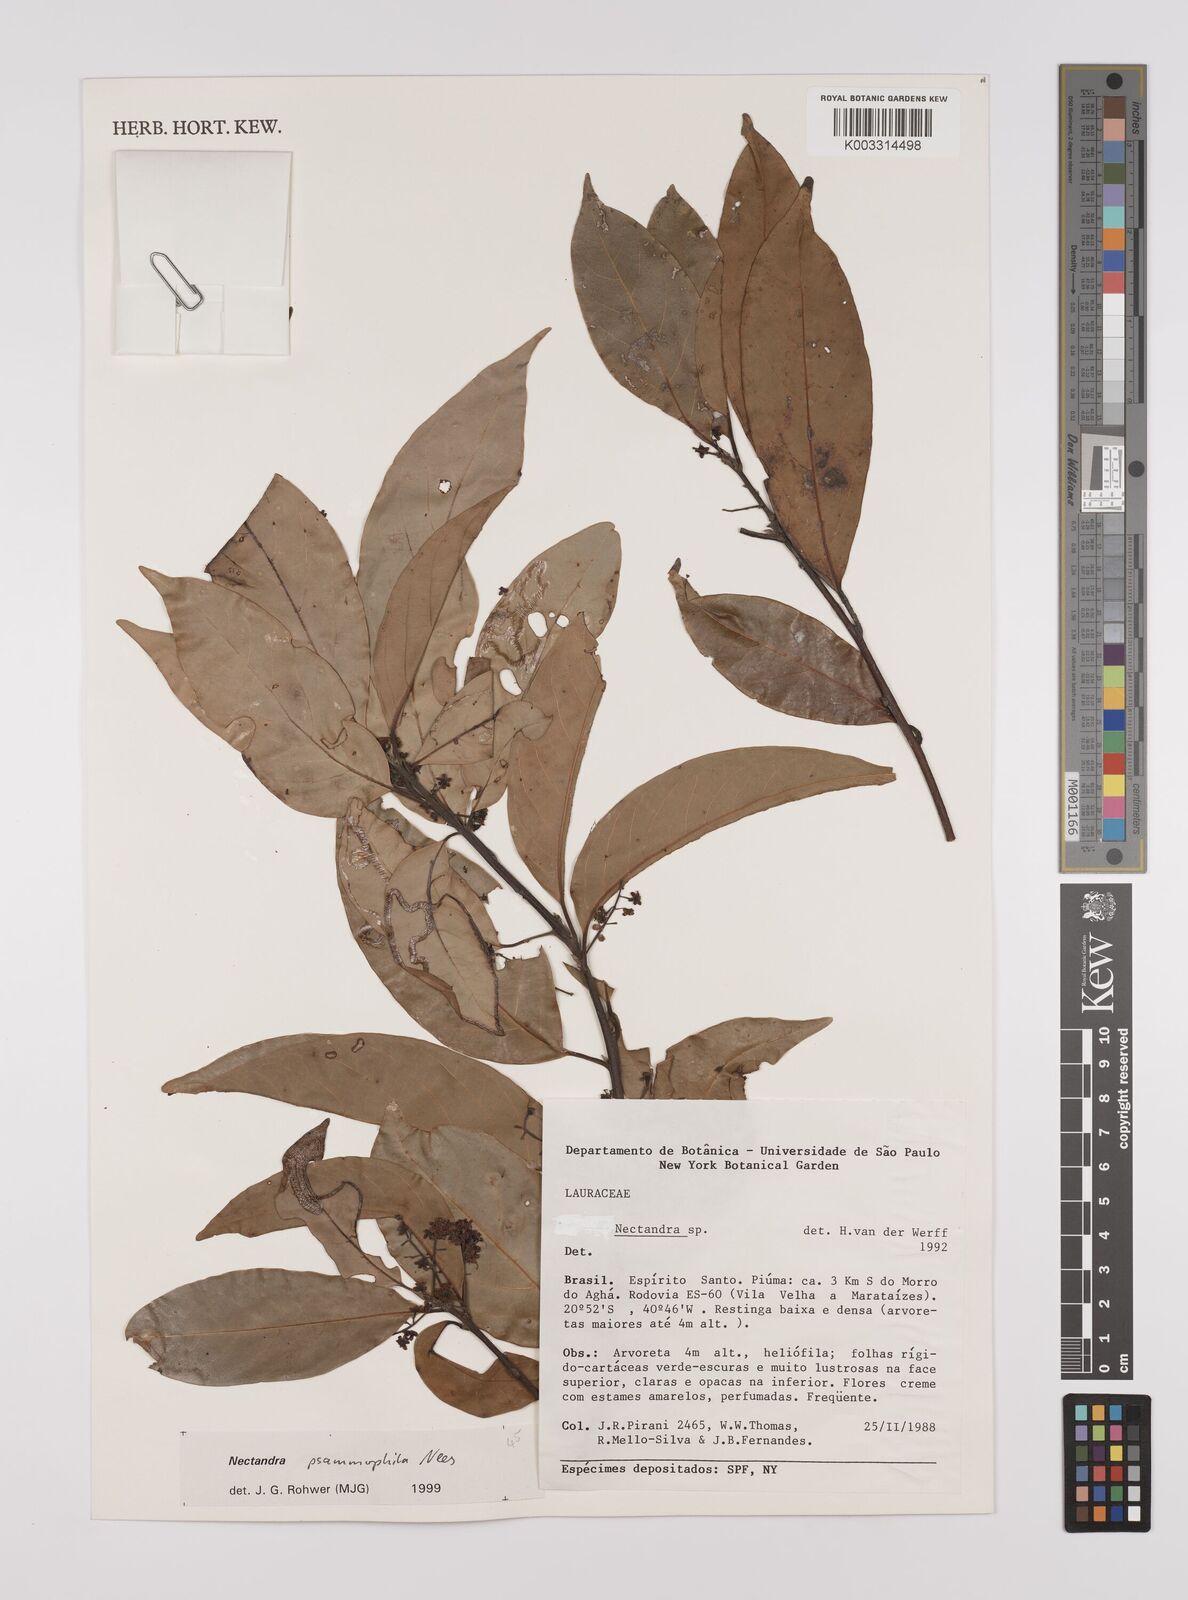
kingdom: Plantae
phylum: Tracheophyta
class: Magnoliopsida
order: Laurales
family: Lauraceae
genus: Nectandra
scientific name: Nectandra psammophila
